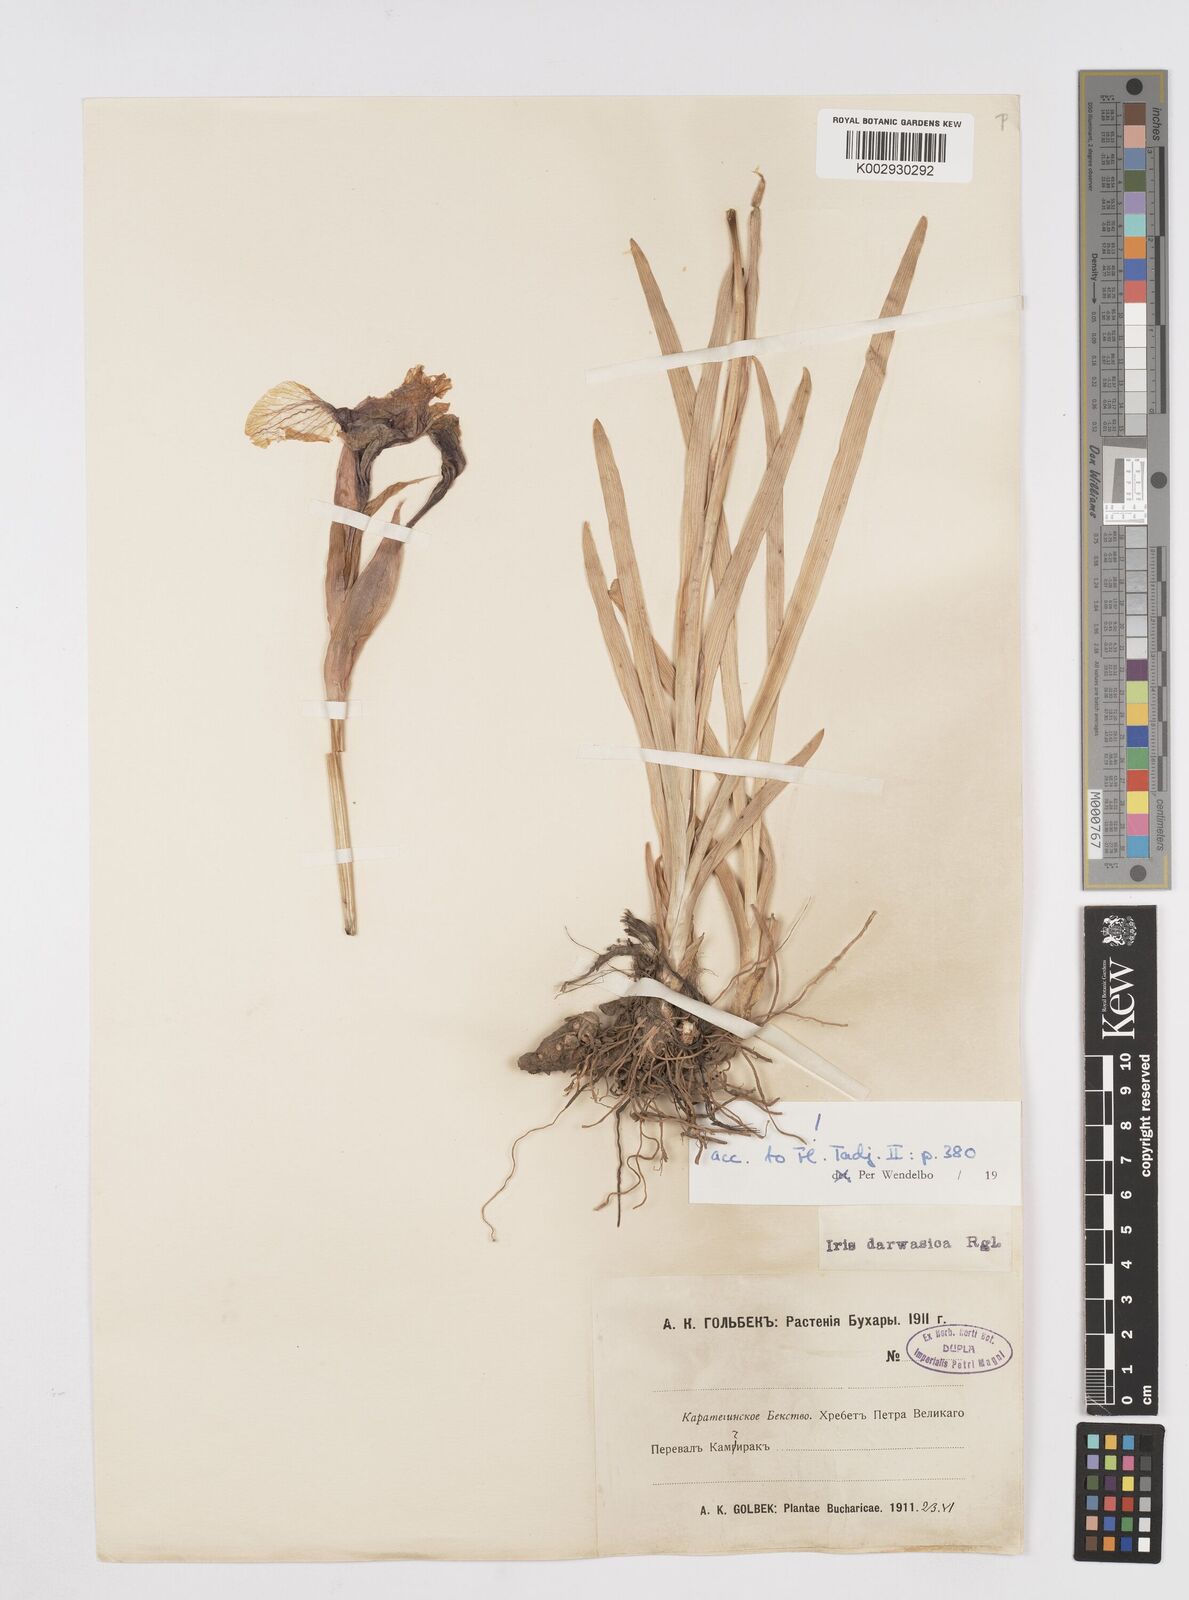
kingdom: Plantae
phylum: Tracheophyta
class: Liliopsida
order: Asparagales
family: Iridaceae
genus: Iris
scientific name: Iris darwasica
